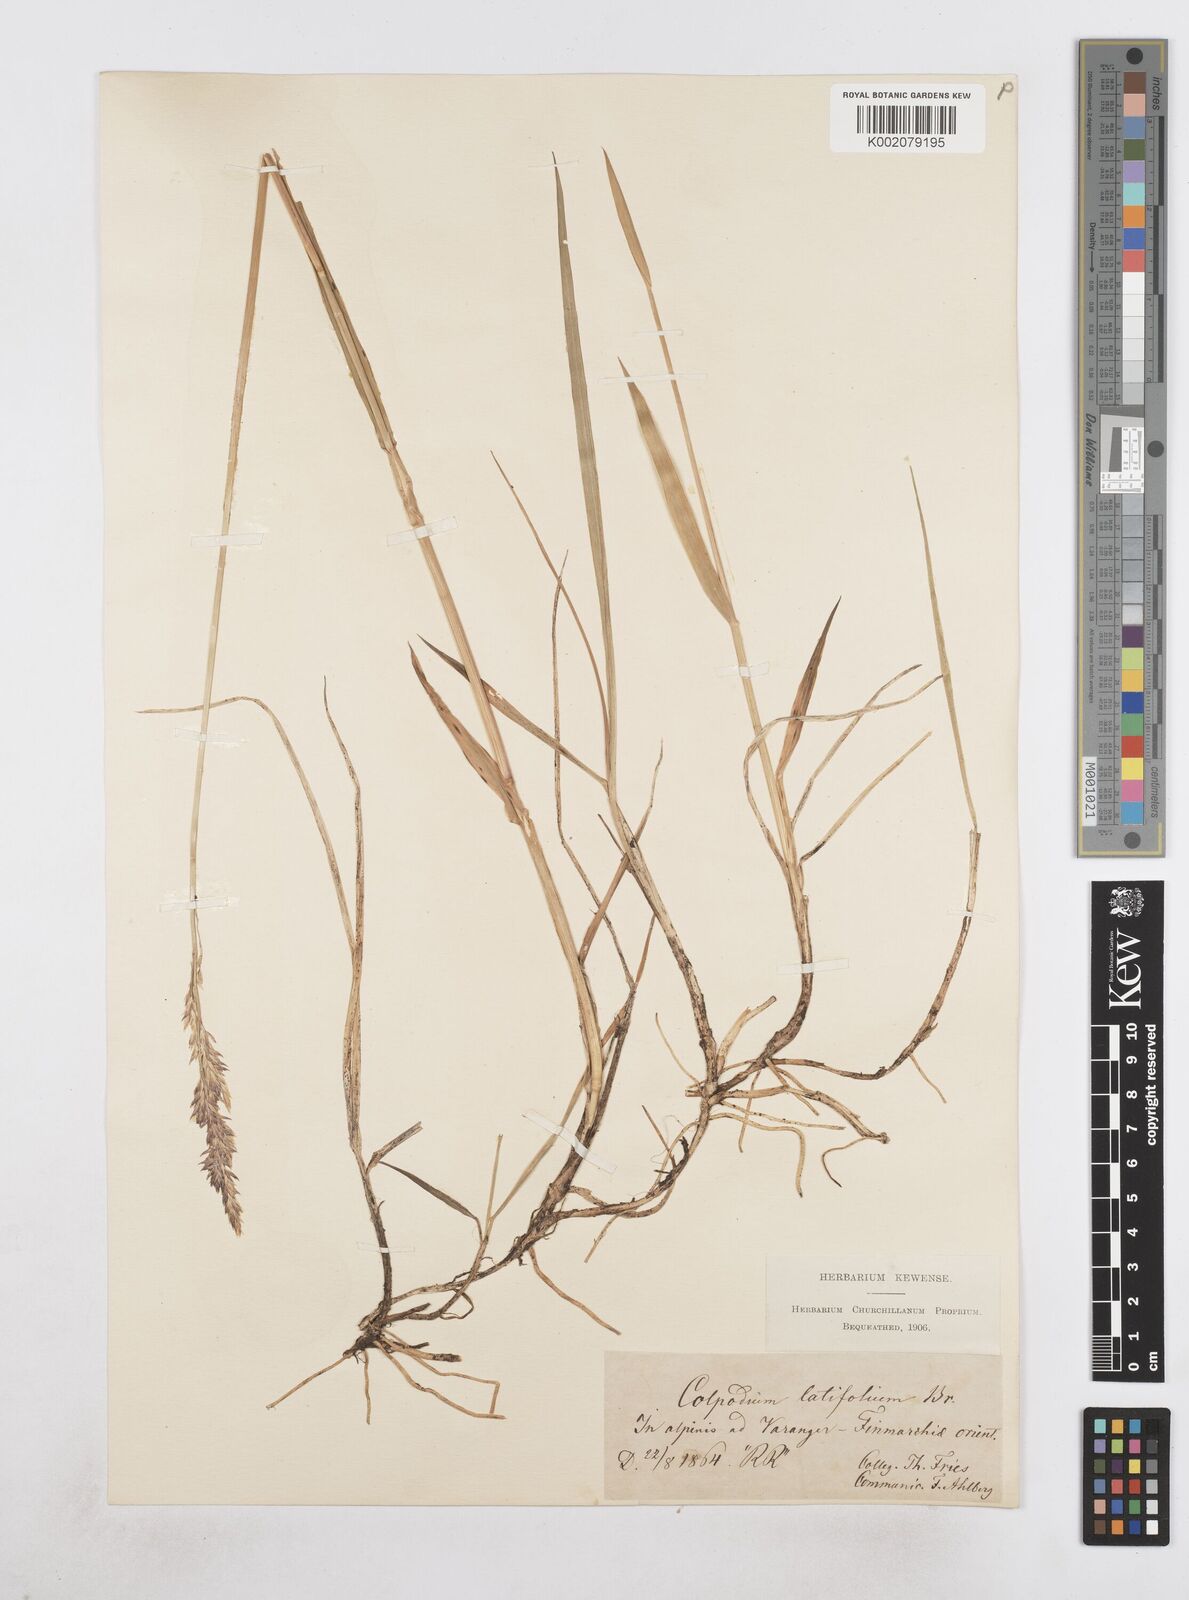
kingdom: Plantae
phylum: Tracheophyta
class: Liliopsida
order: Poales
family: Poaceae
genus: Arctagrostis
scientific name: Arctagrostis latifolia
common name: Arctic grass
